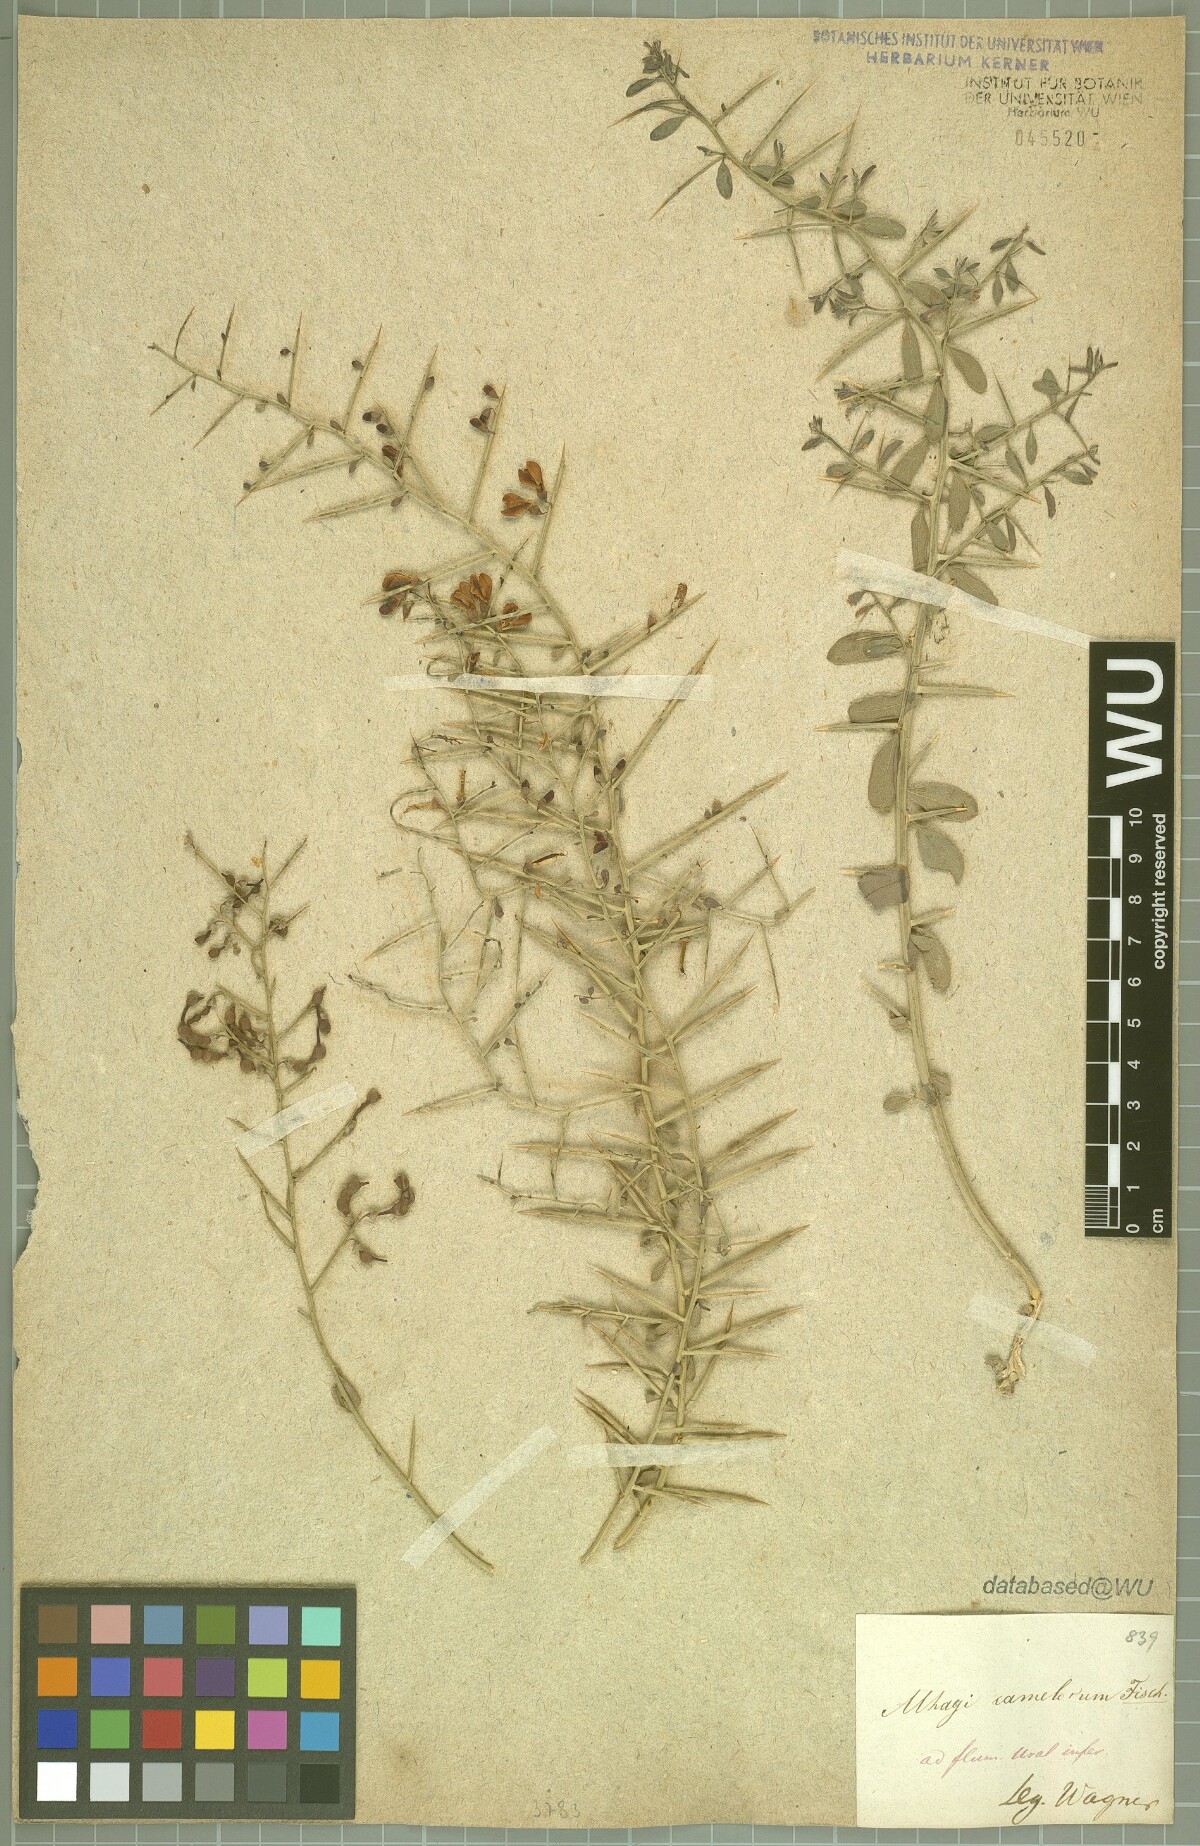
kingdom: Plantae
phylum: Tracheophyta
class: Magnoliopsida
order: Fabales
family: Fabaceae
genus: Alhagi
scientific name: Alhagi maurorum
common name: Camelthorn
